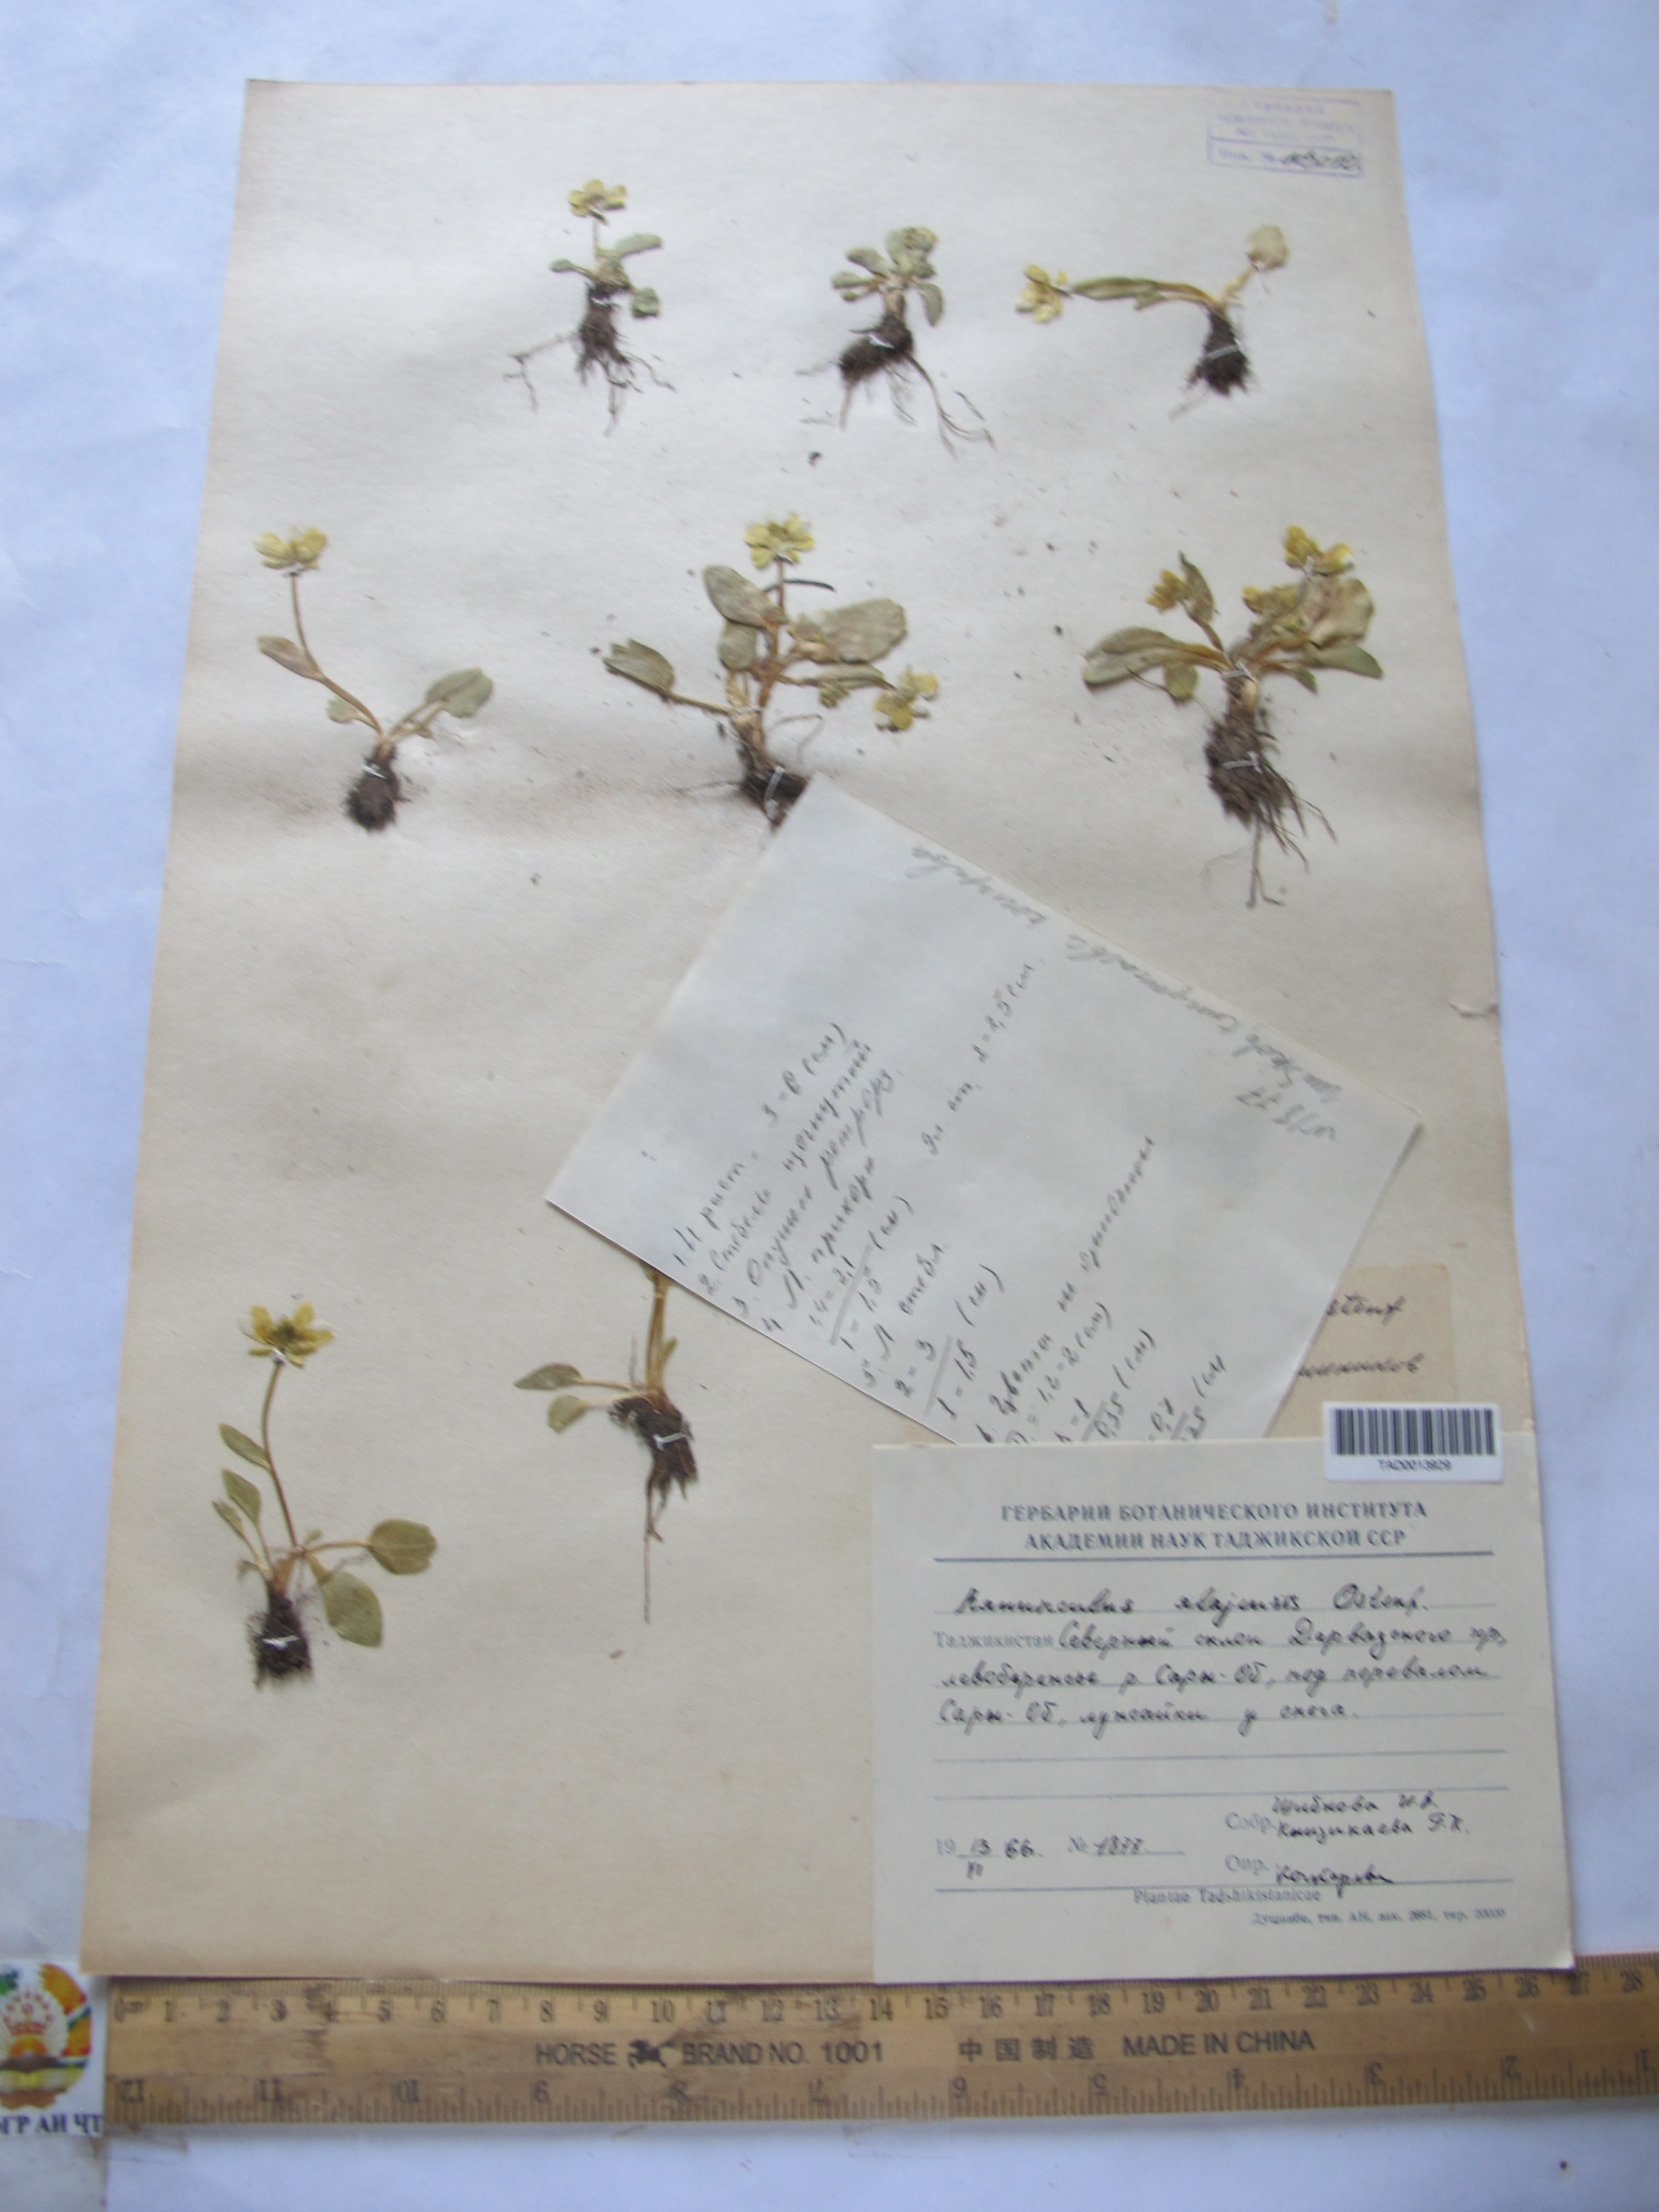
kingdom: Plantae
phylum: Tracheophyta
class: Magnoliopsida
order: Ranunculales
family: Ranunculaceae
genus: Ranunculus
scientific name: Ranunculus alaiensis
